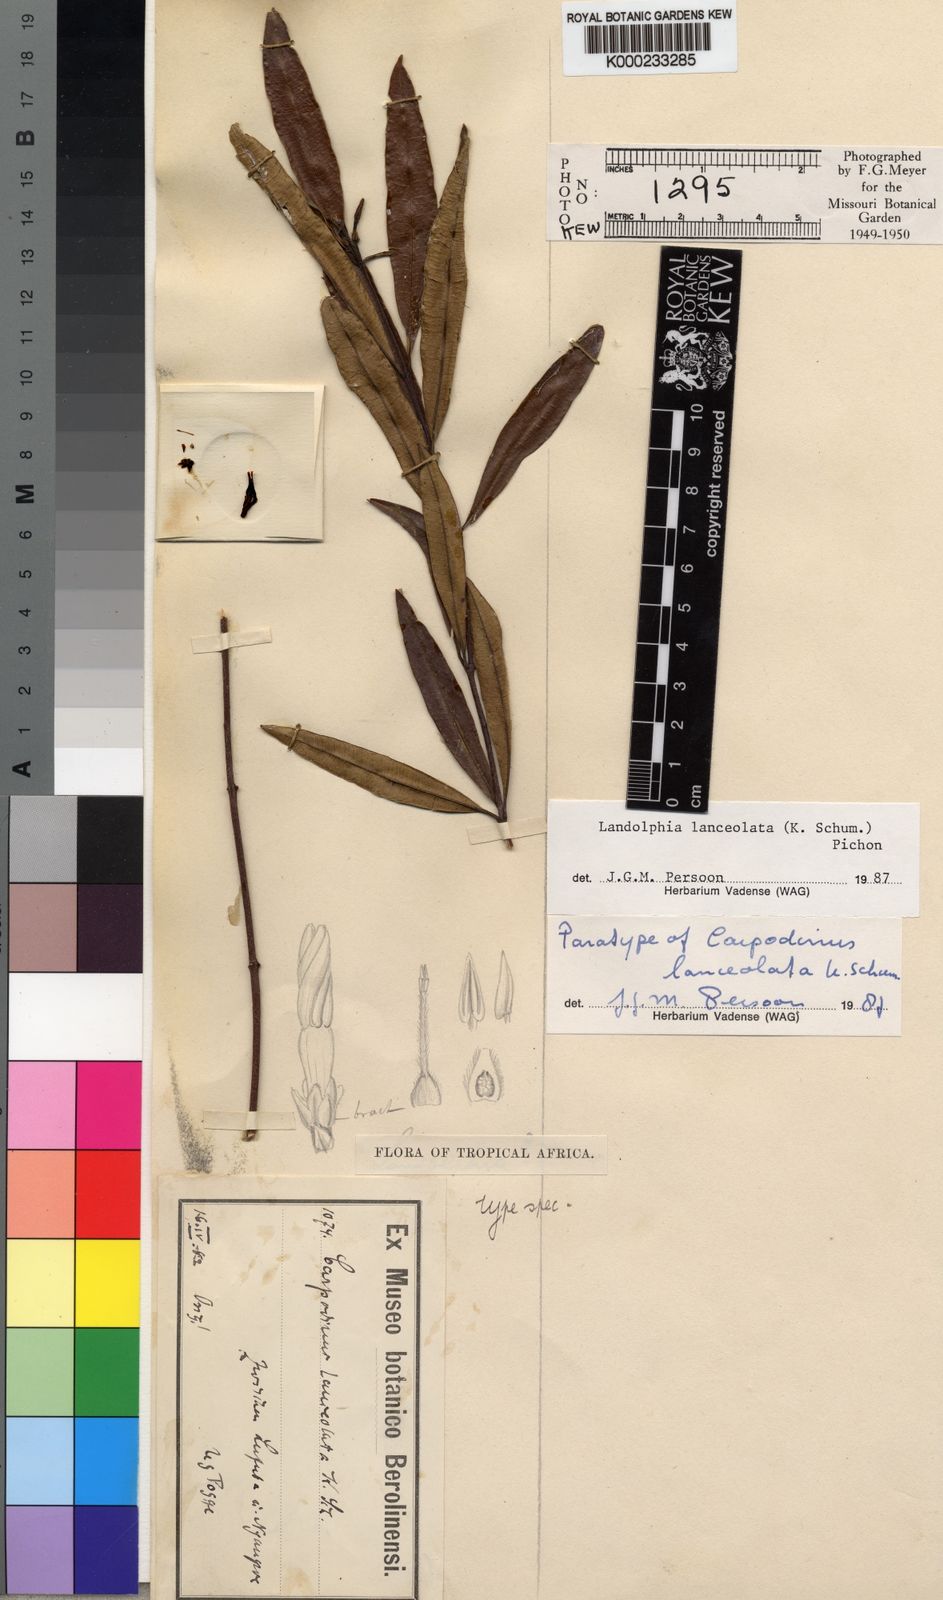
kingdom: Plantae
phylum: Tracheophyta
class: Magnoliopsida
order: Gentianales
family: Apocynaceae
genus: Landolphia
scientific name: Landolphia lanceolata
